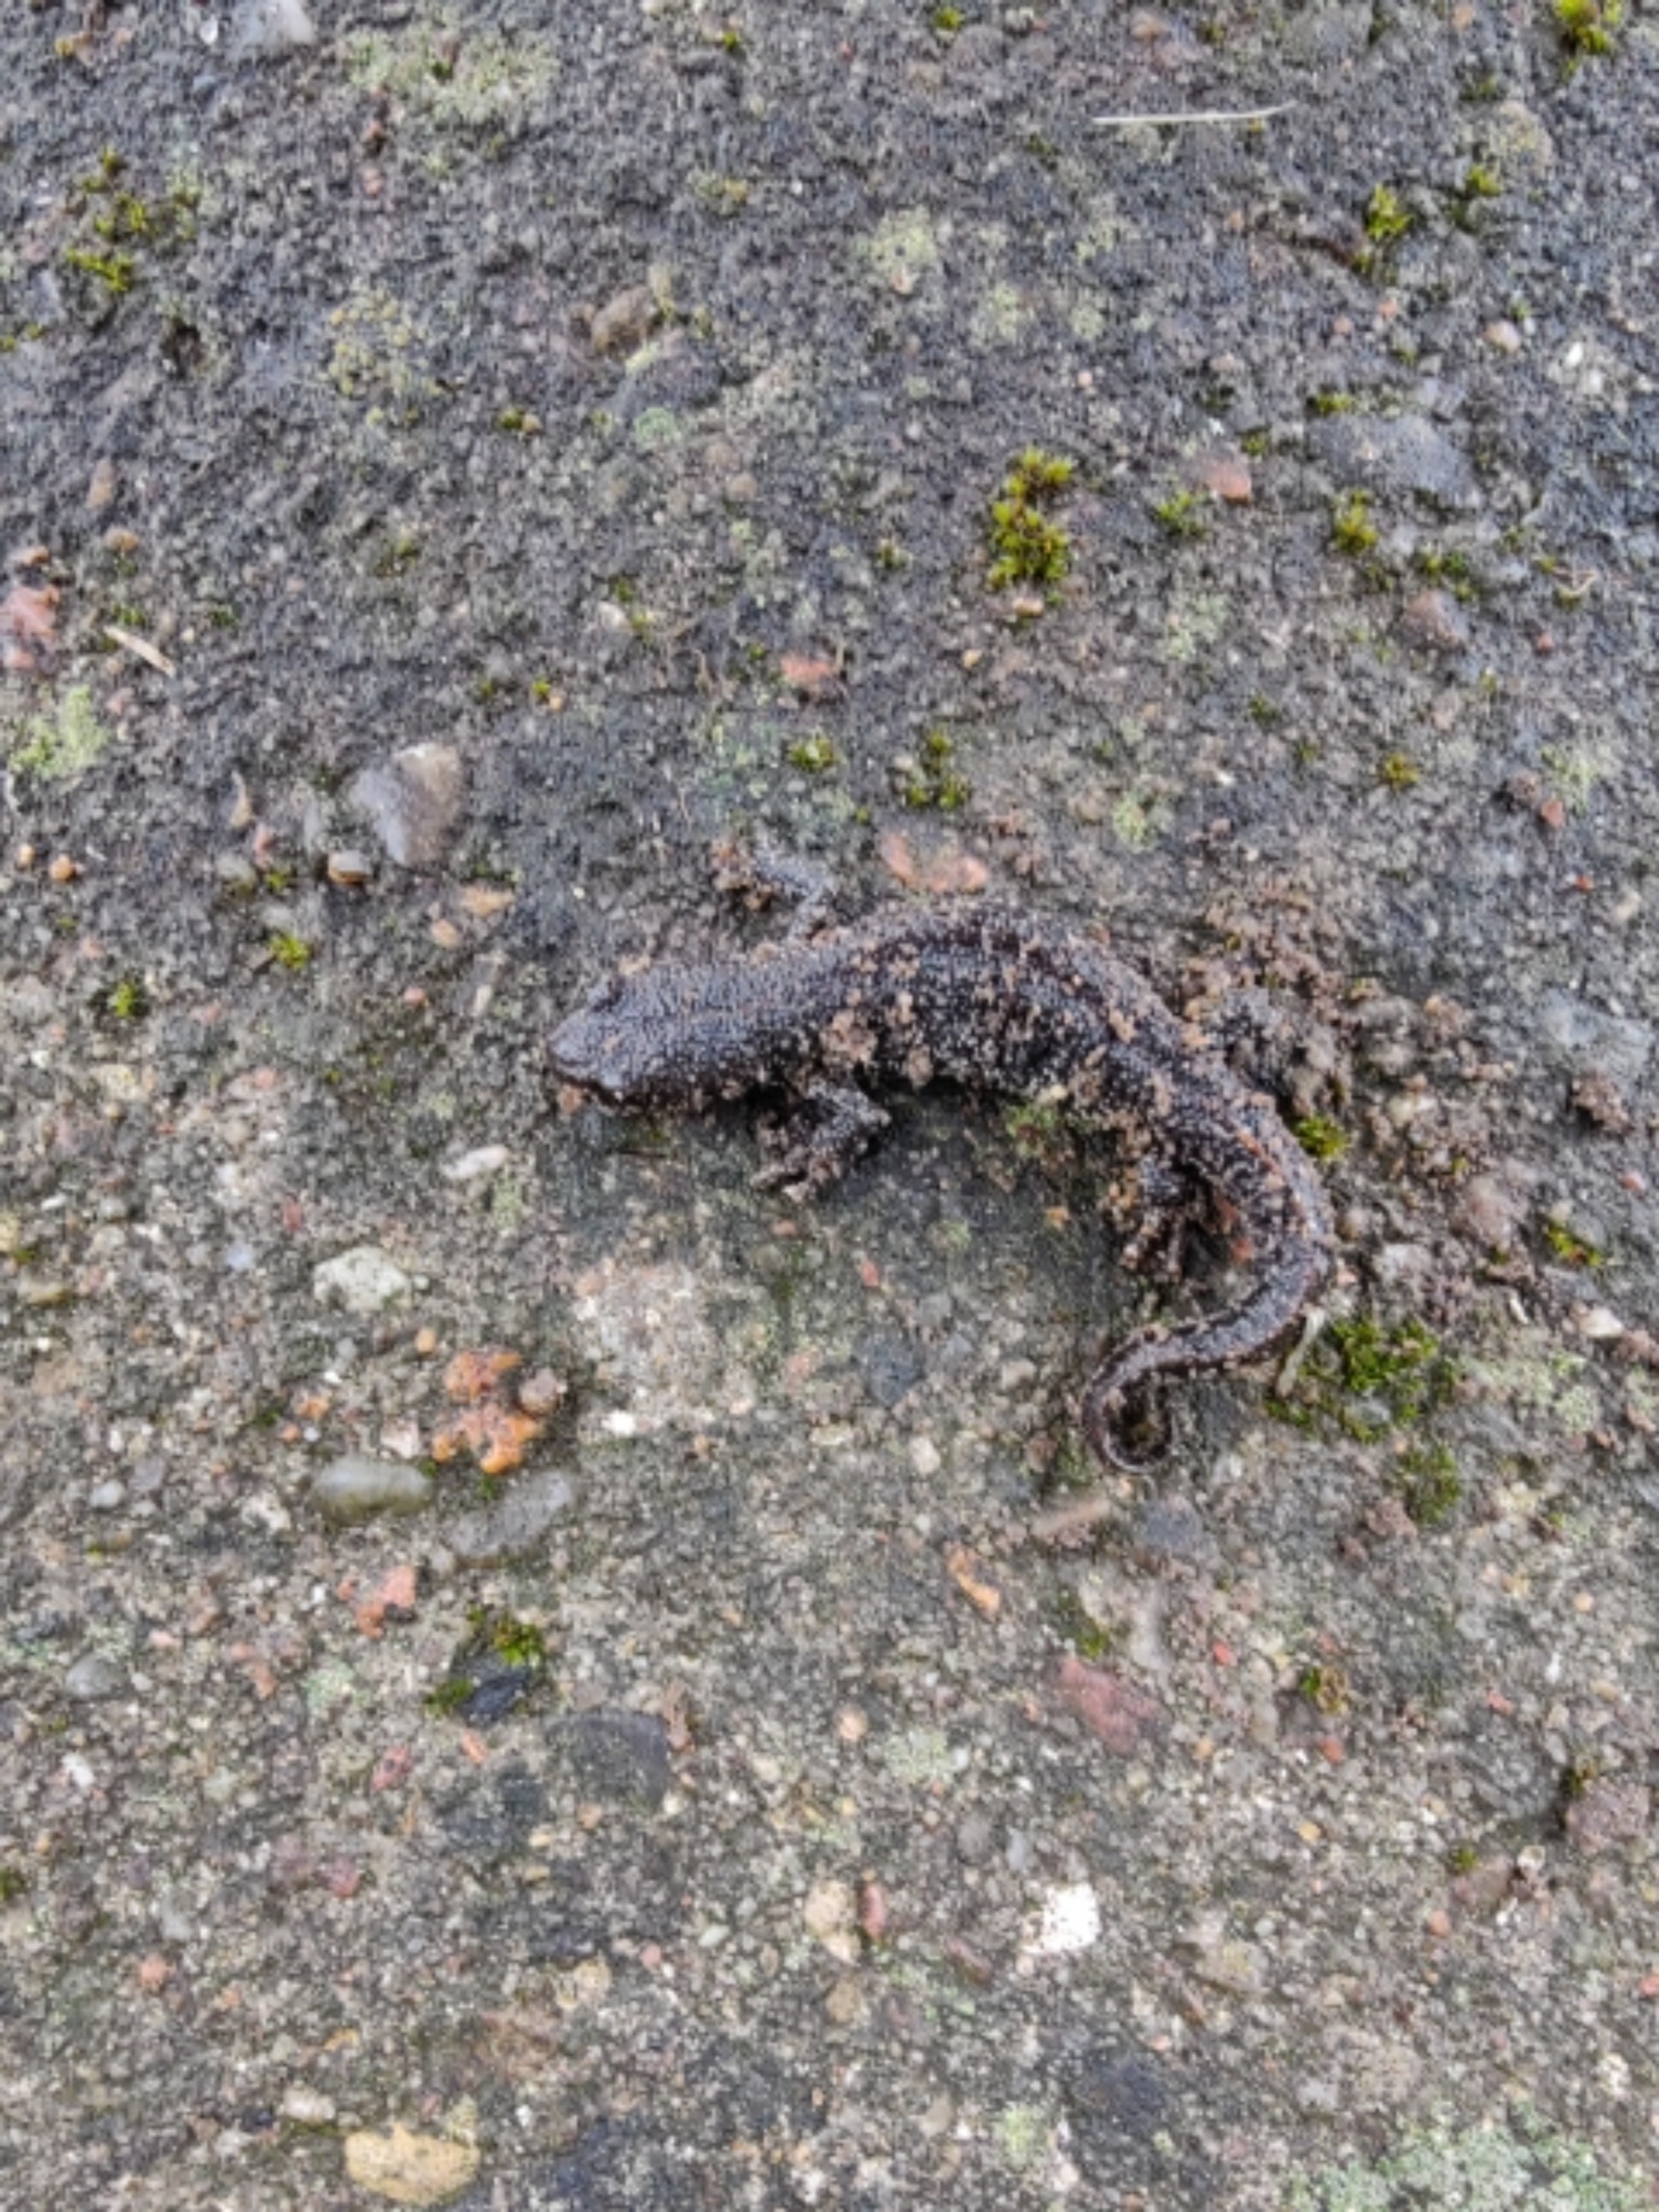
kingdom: Animalia
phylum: Chordata
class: Amphibia
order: Caudata
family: Salamandridae
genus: Triturus
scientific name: Triturus cristatus
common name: Stor vandsalamander
